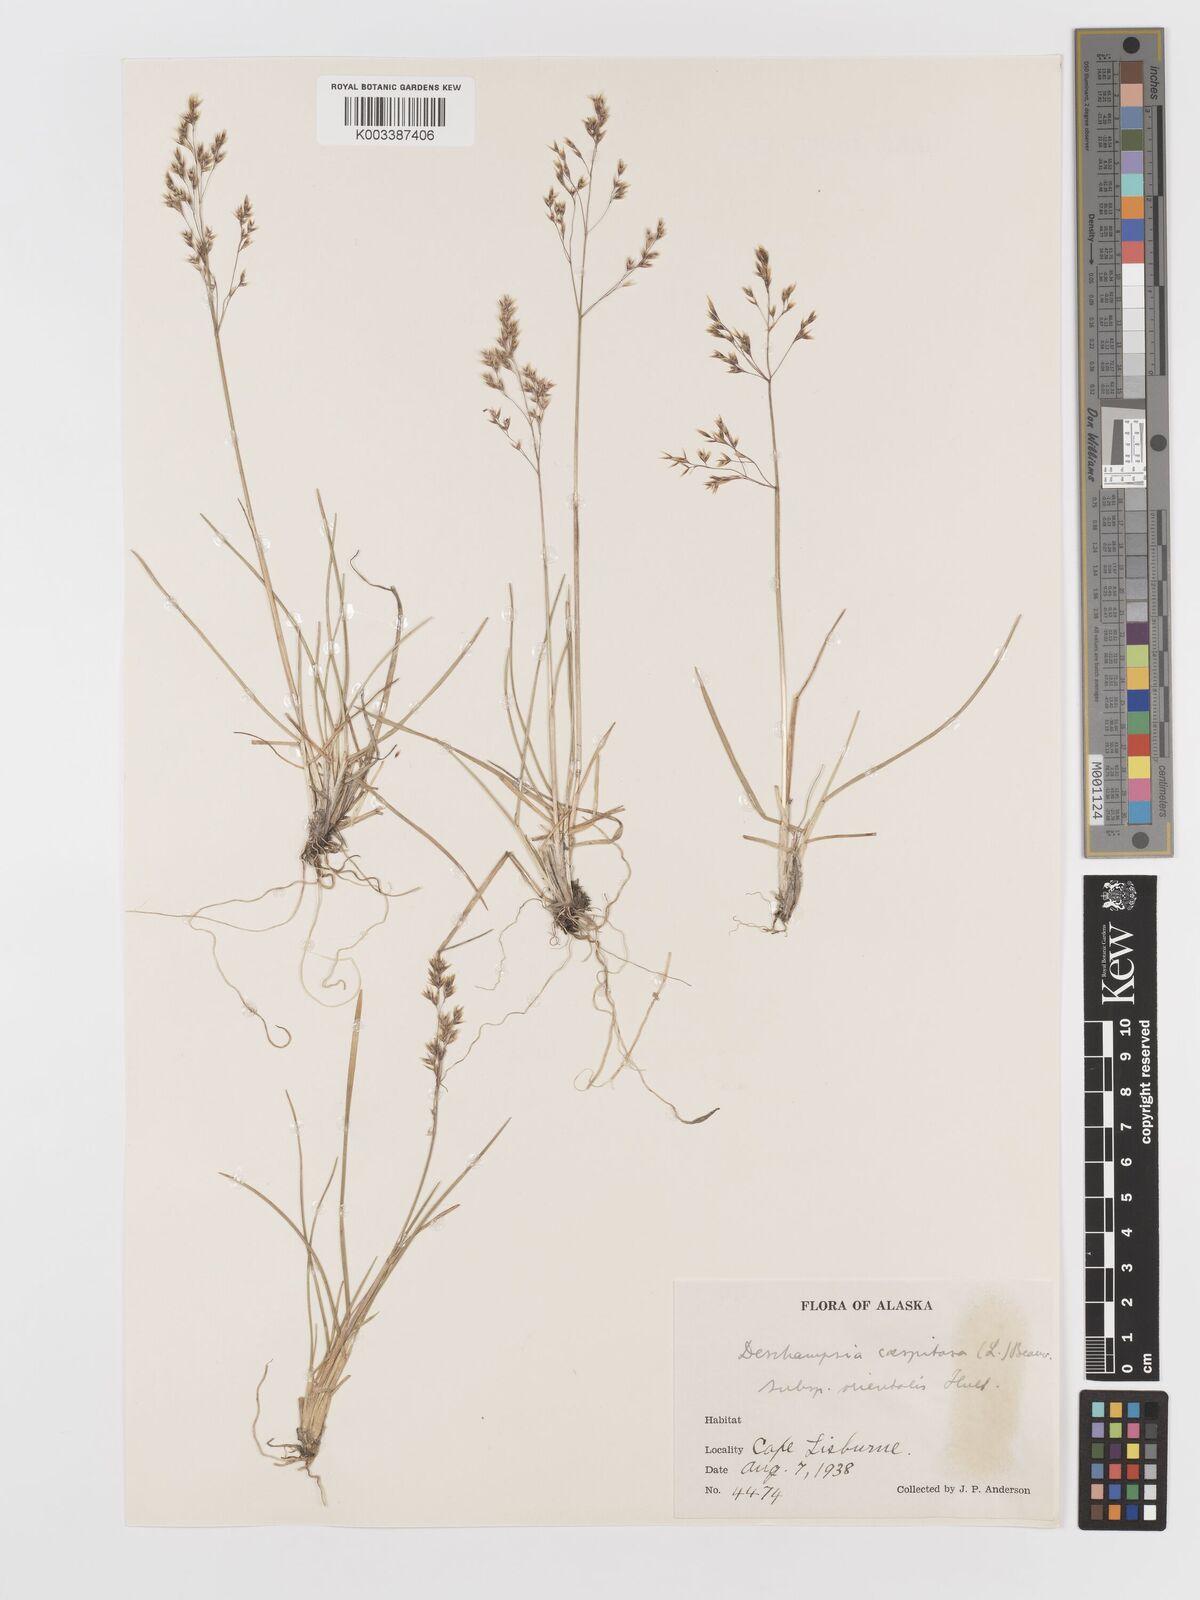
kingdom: Plantae
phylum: Tracheophyta
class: Liliopsida
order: Poales
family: Poaceae
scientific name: Poaceae
